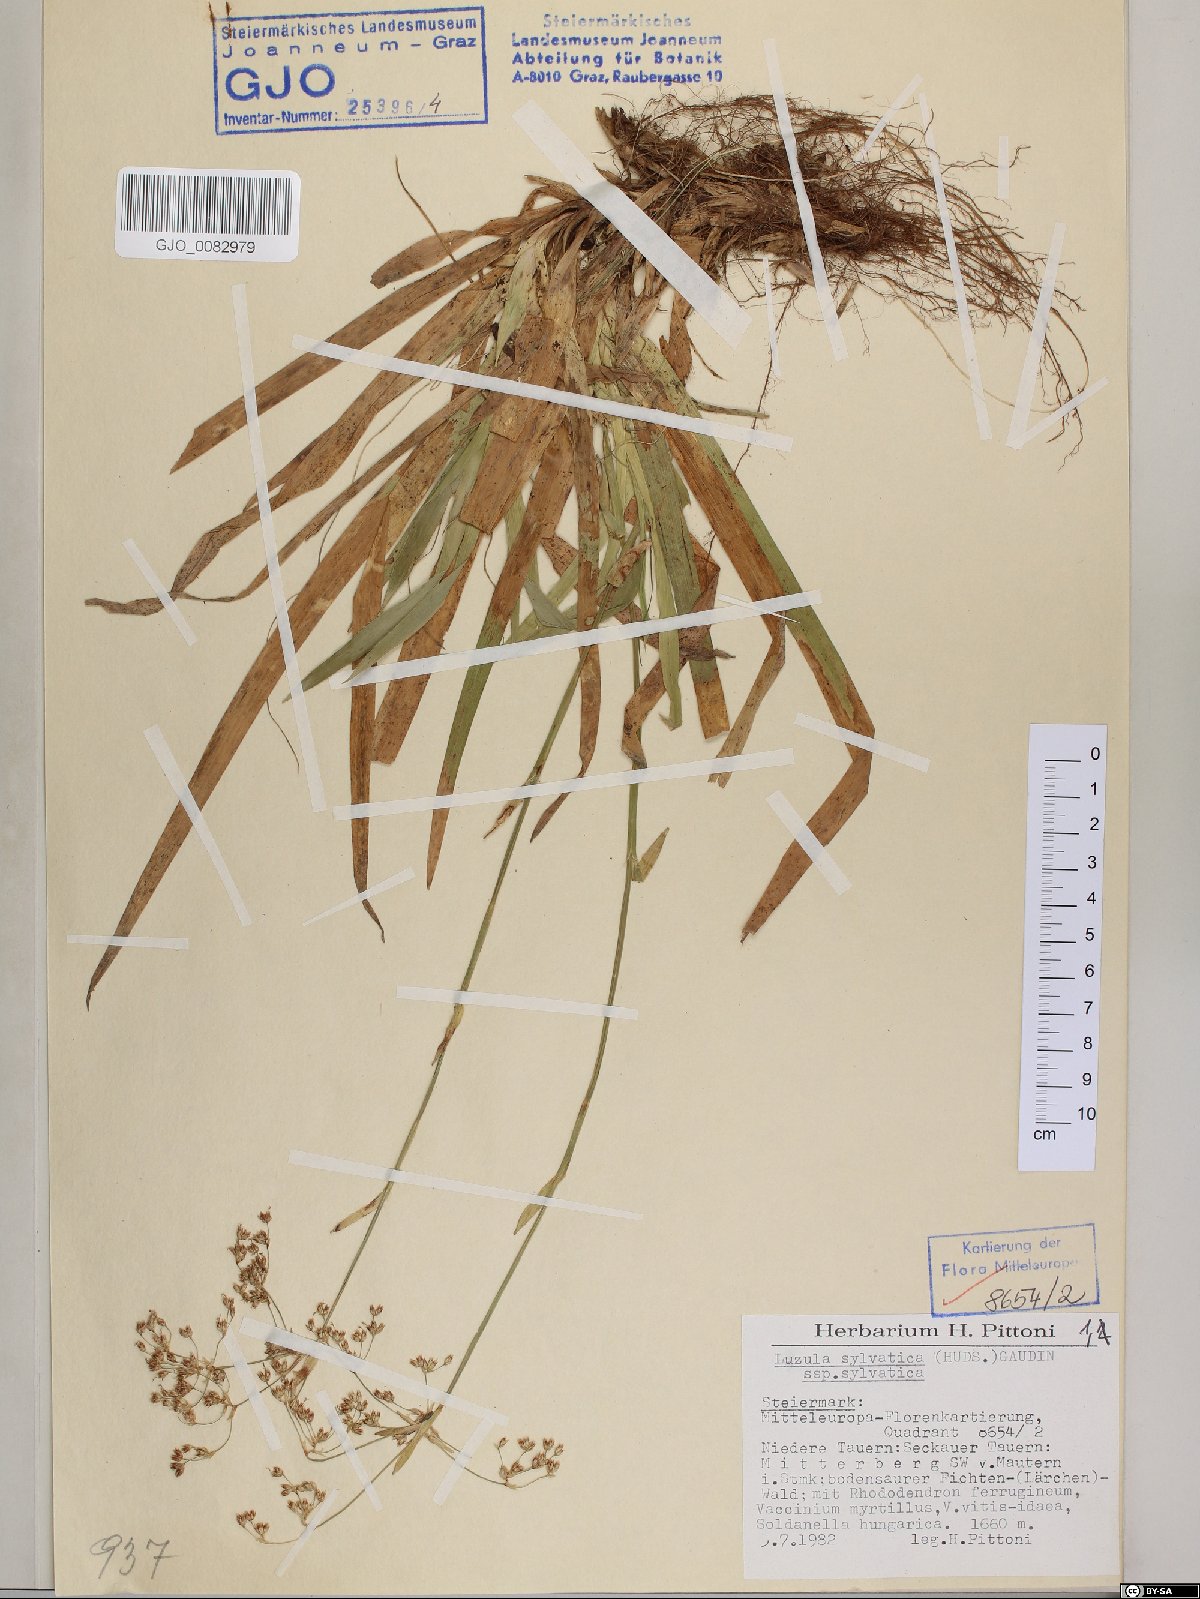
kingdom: Plantae
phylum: Tracheophyta
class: Liliopsida
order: Poales
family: Juncaceae
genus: Luzula
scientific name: Luzula sylvatica
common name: Great wood-rush
